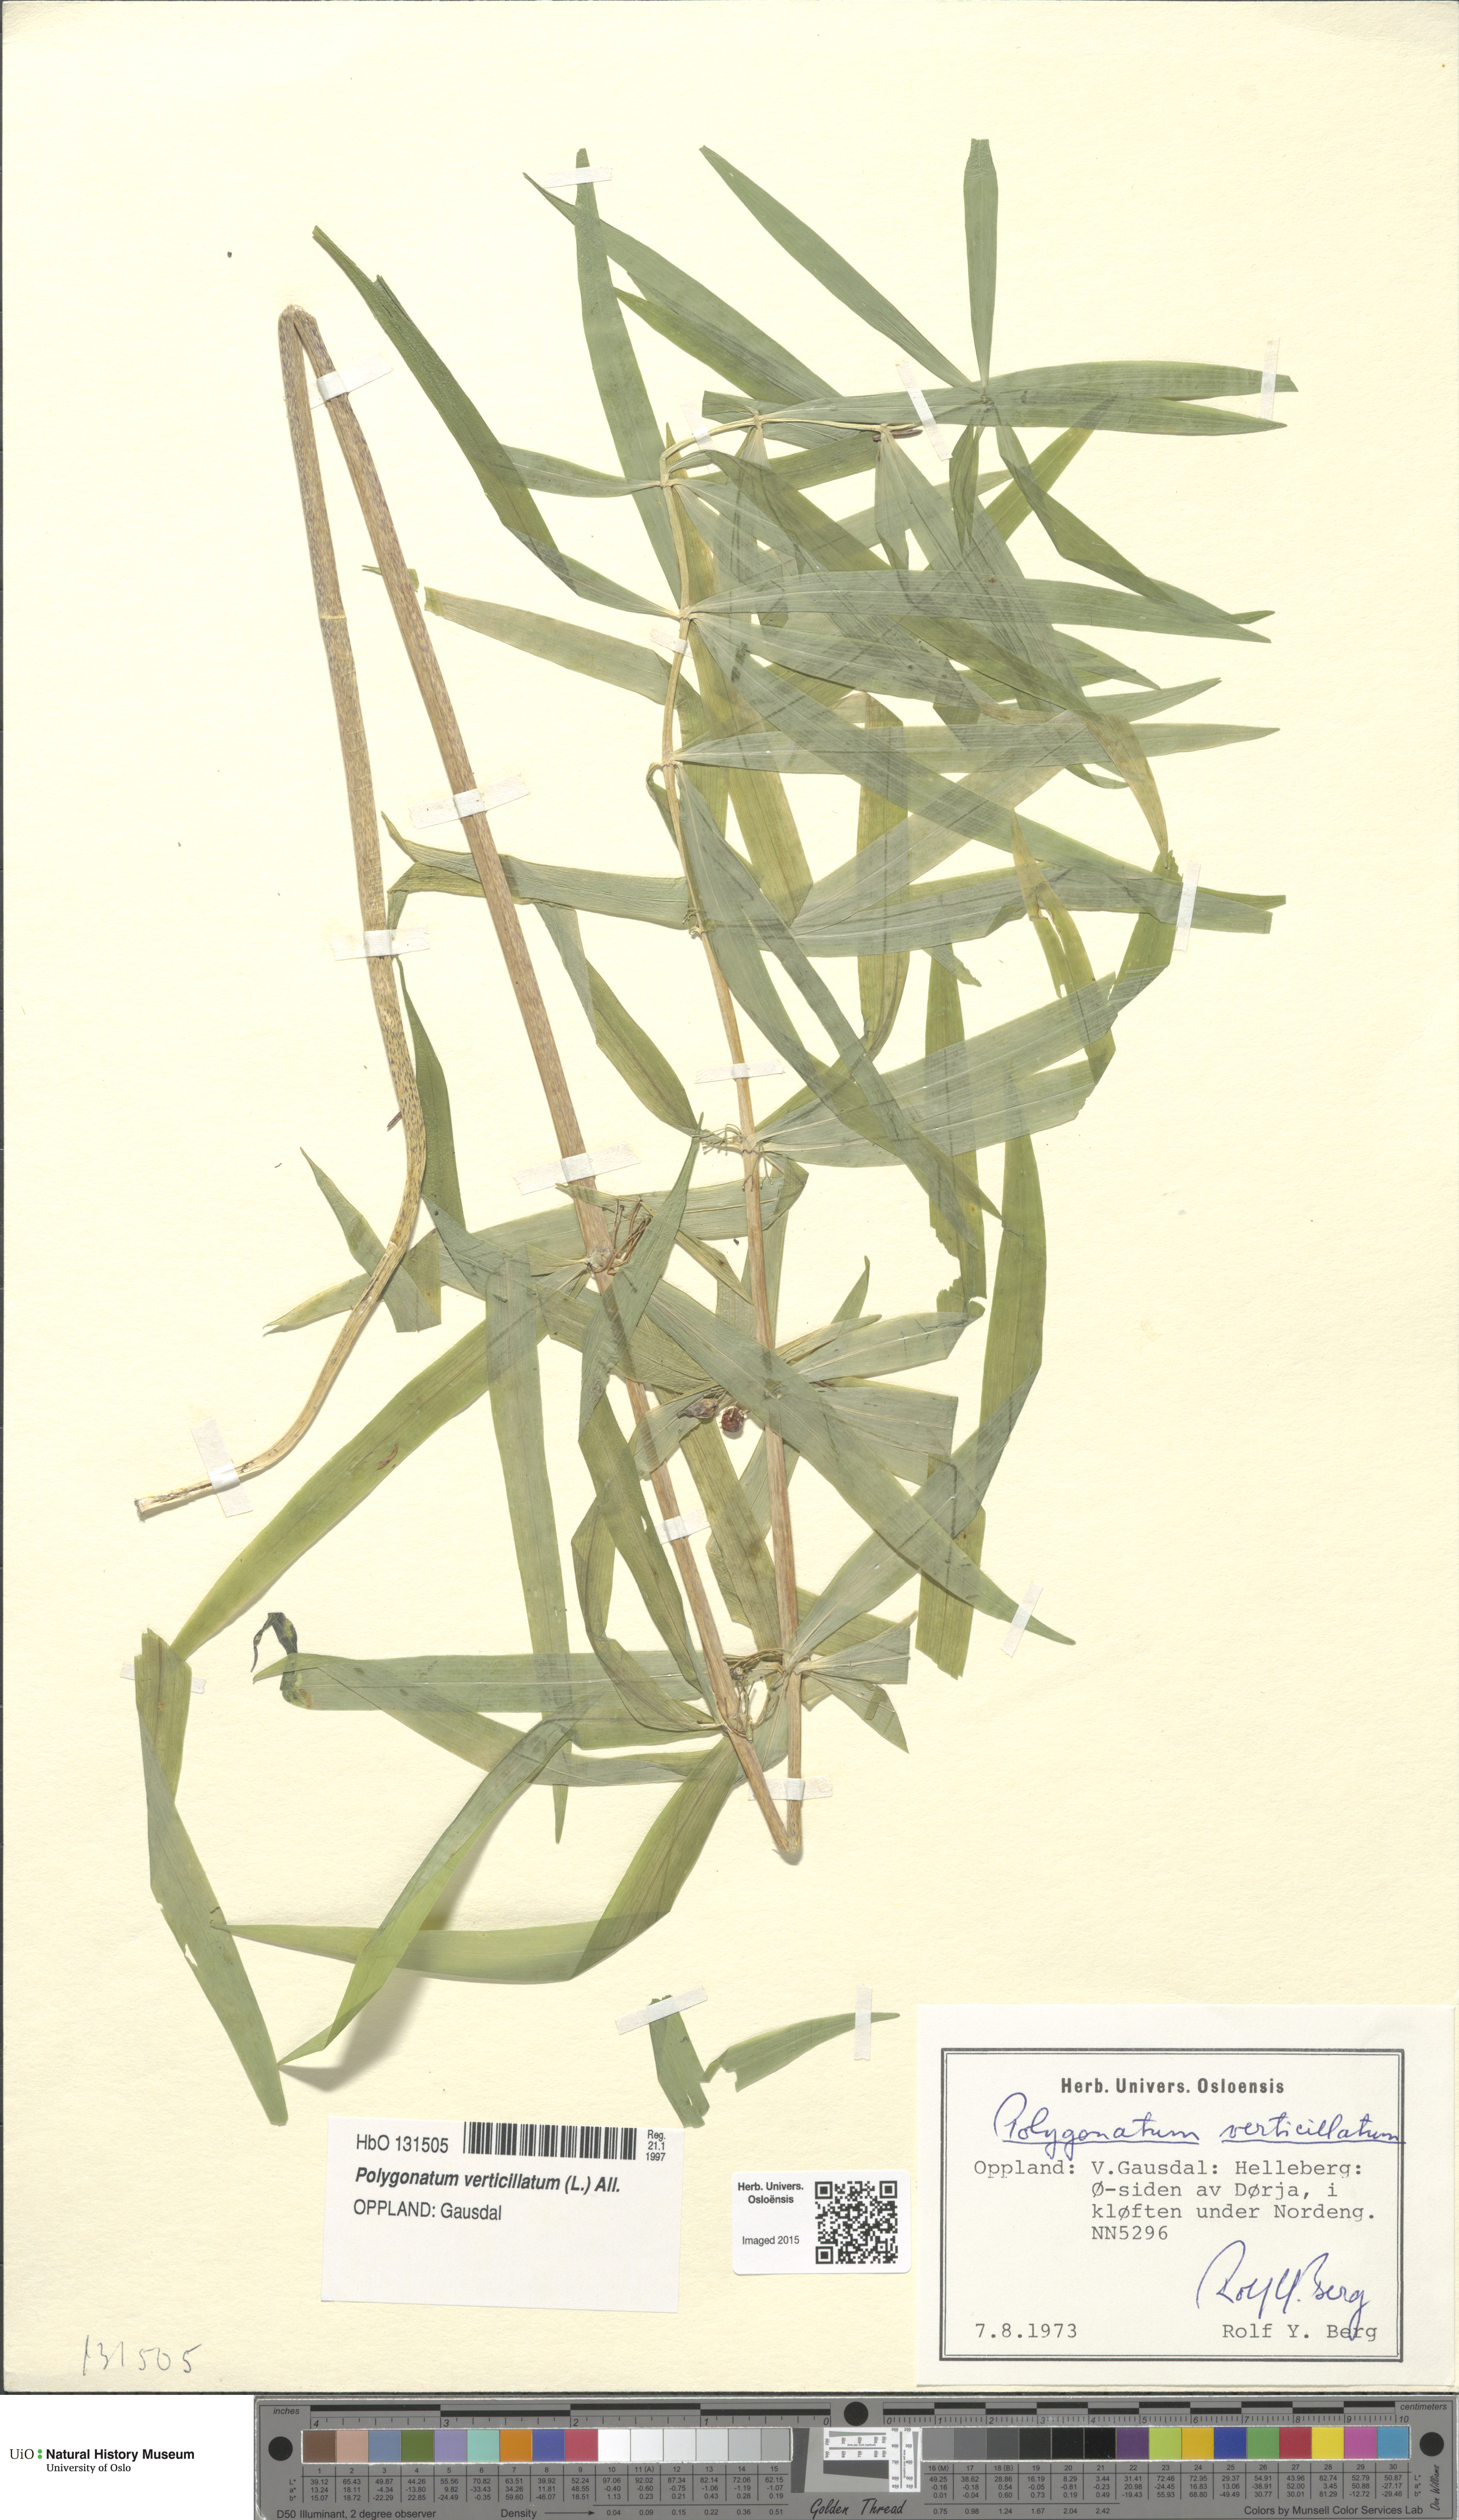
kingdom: Plantae
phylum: Tracheophyta
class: Liliopsida
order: Asparagales
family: Asparagaceae
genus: Polygonatum
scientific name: Polygonatum verticillatum
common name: Whorled solomon's-seal
